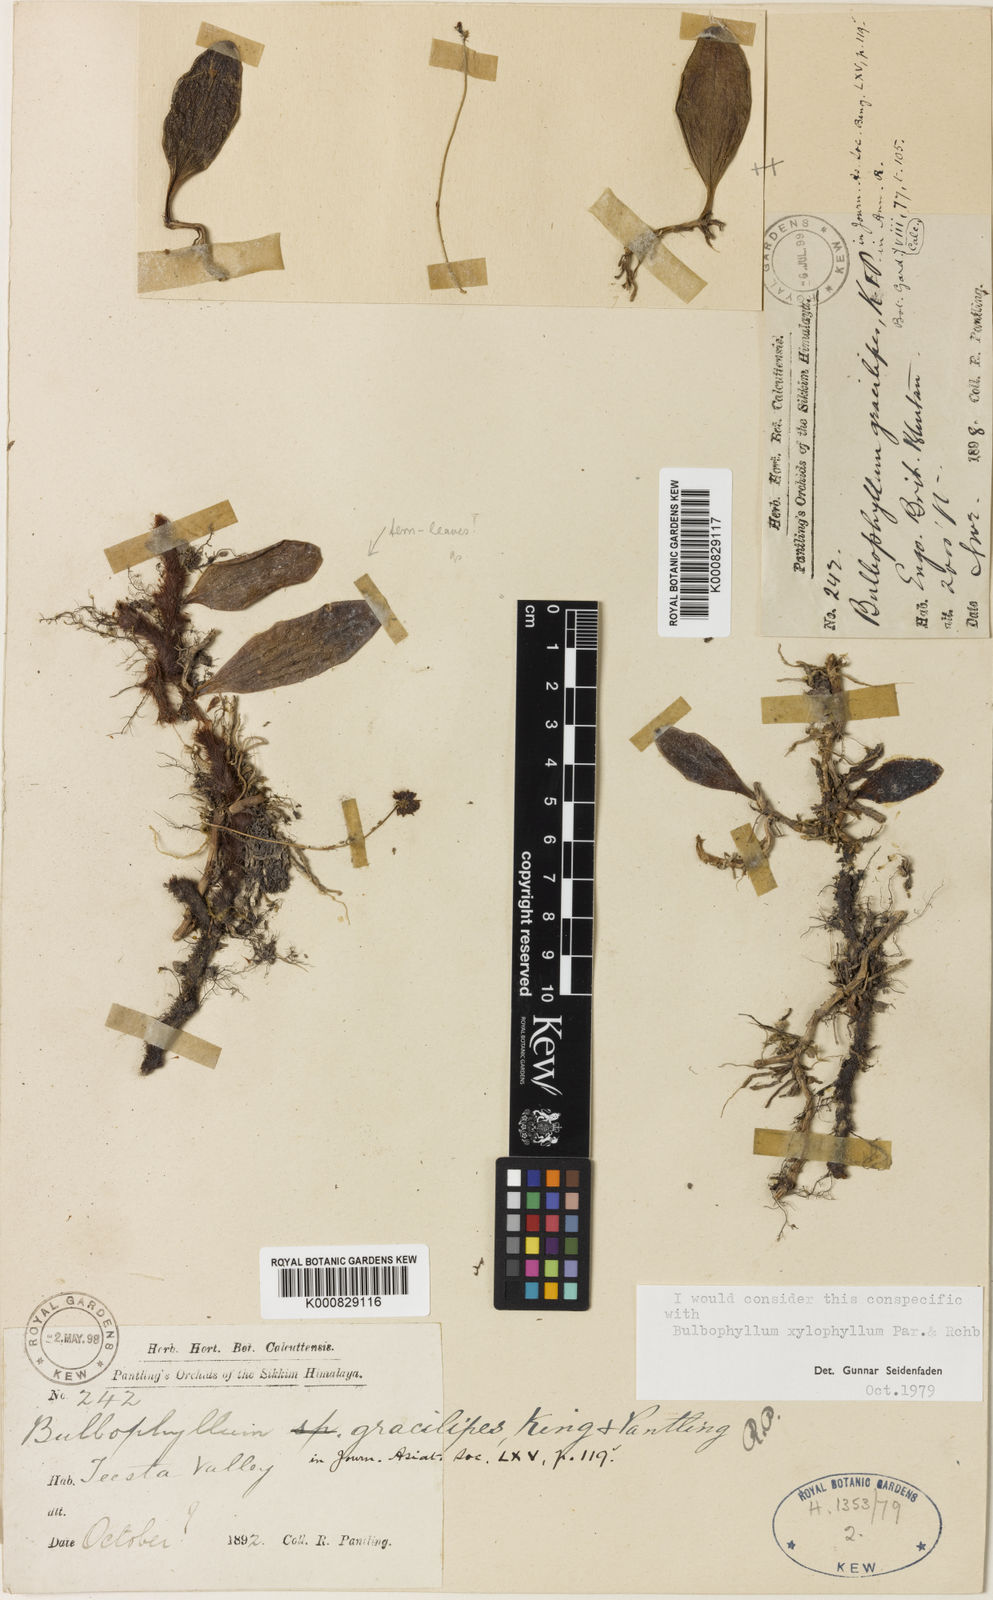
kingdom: Plantae
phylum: Tracheophyta
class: Liliopsida
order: Asparagales
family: Orchidaceae
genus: Bulbophyllum
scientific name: Bulbophyllum gracilipes
